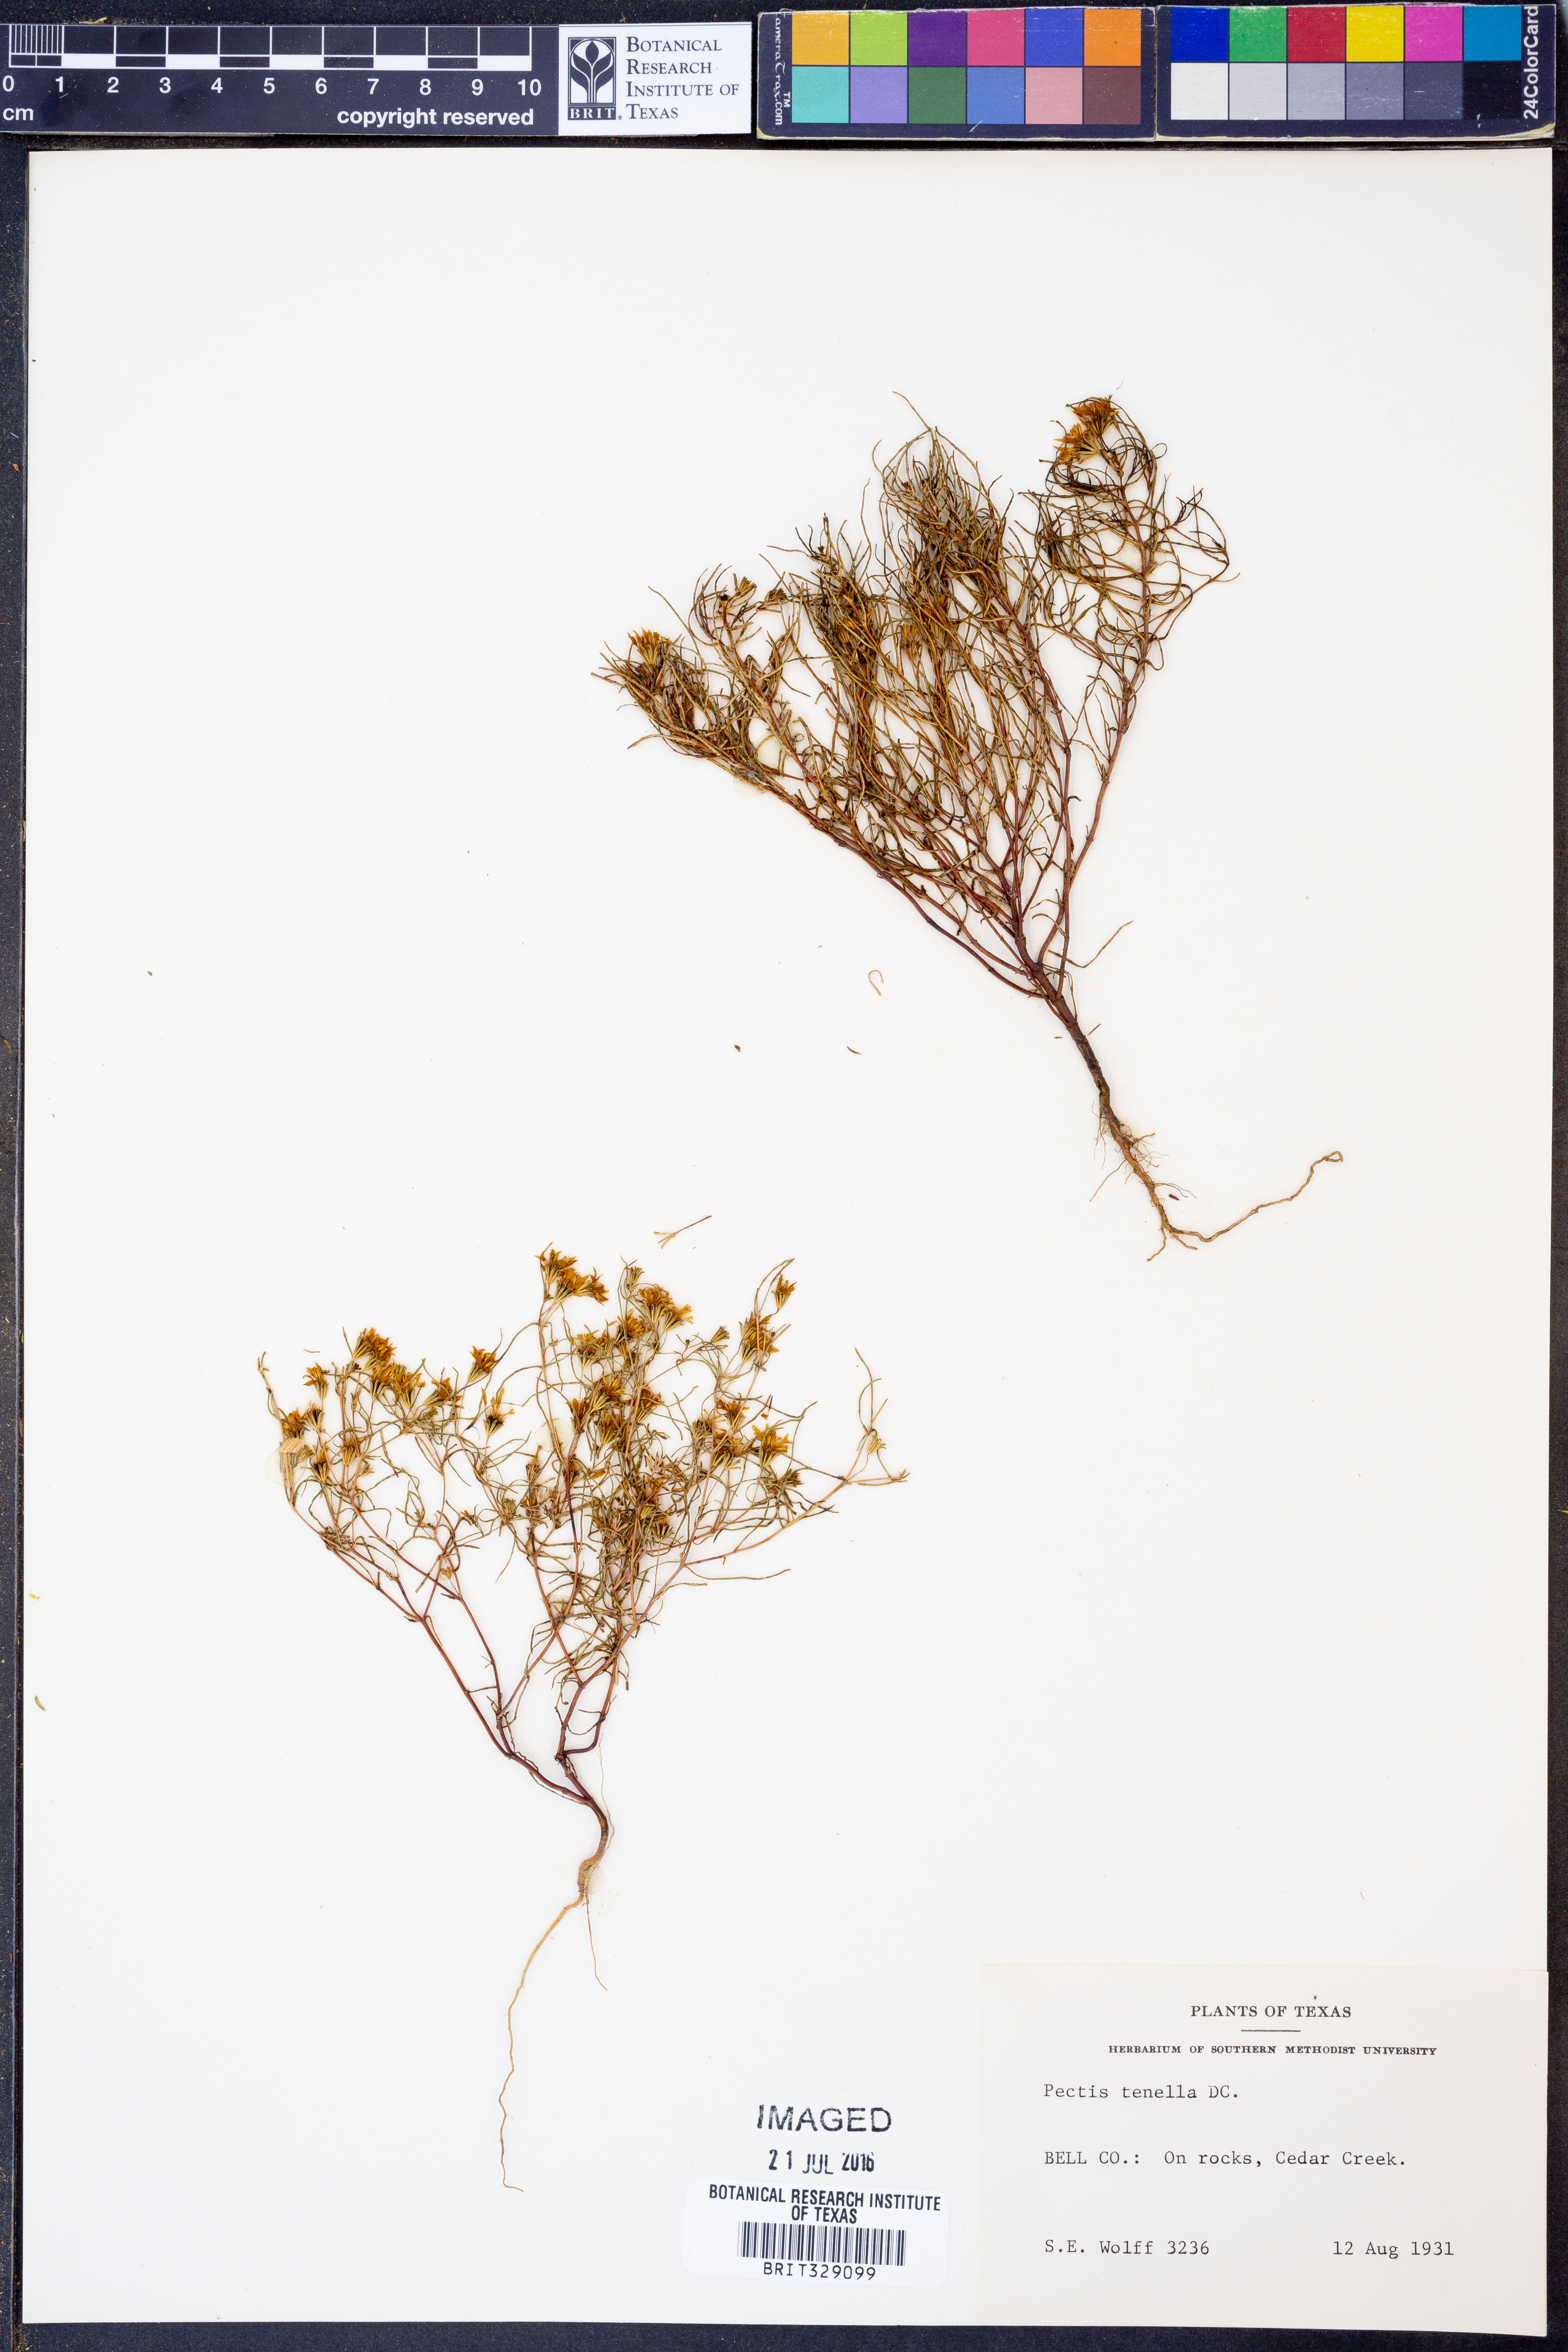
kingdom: Plantae
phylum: Tracheophyta
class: Magnoliopsida
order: Asterales
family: Asteraceae
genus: Pectis
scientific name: Pectis angustifolia
